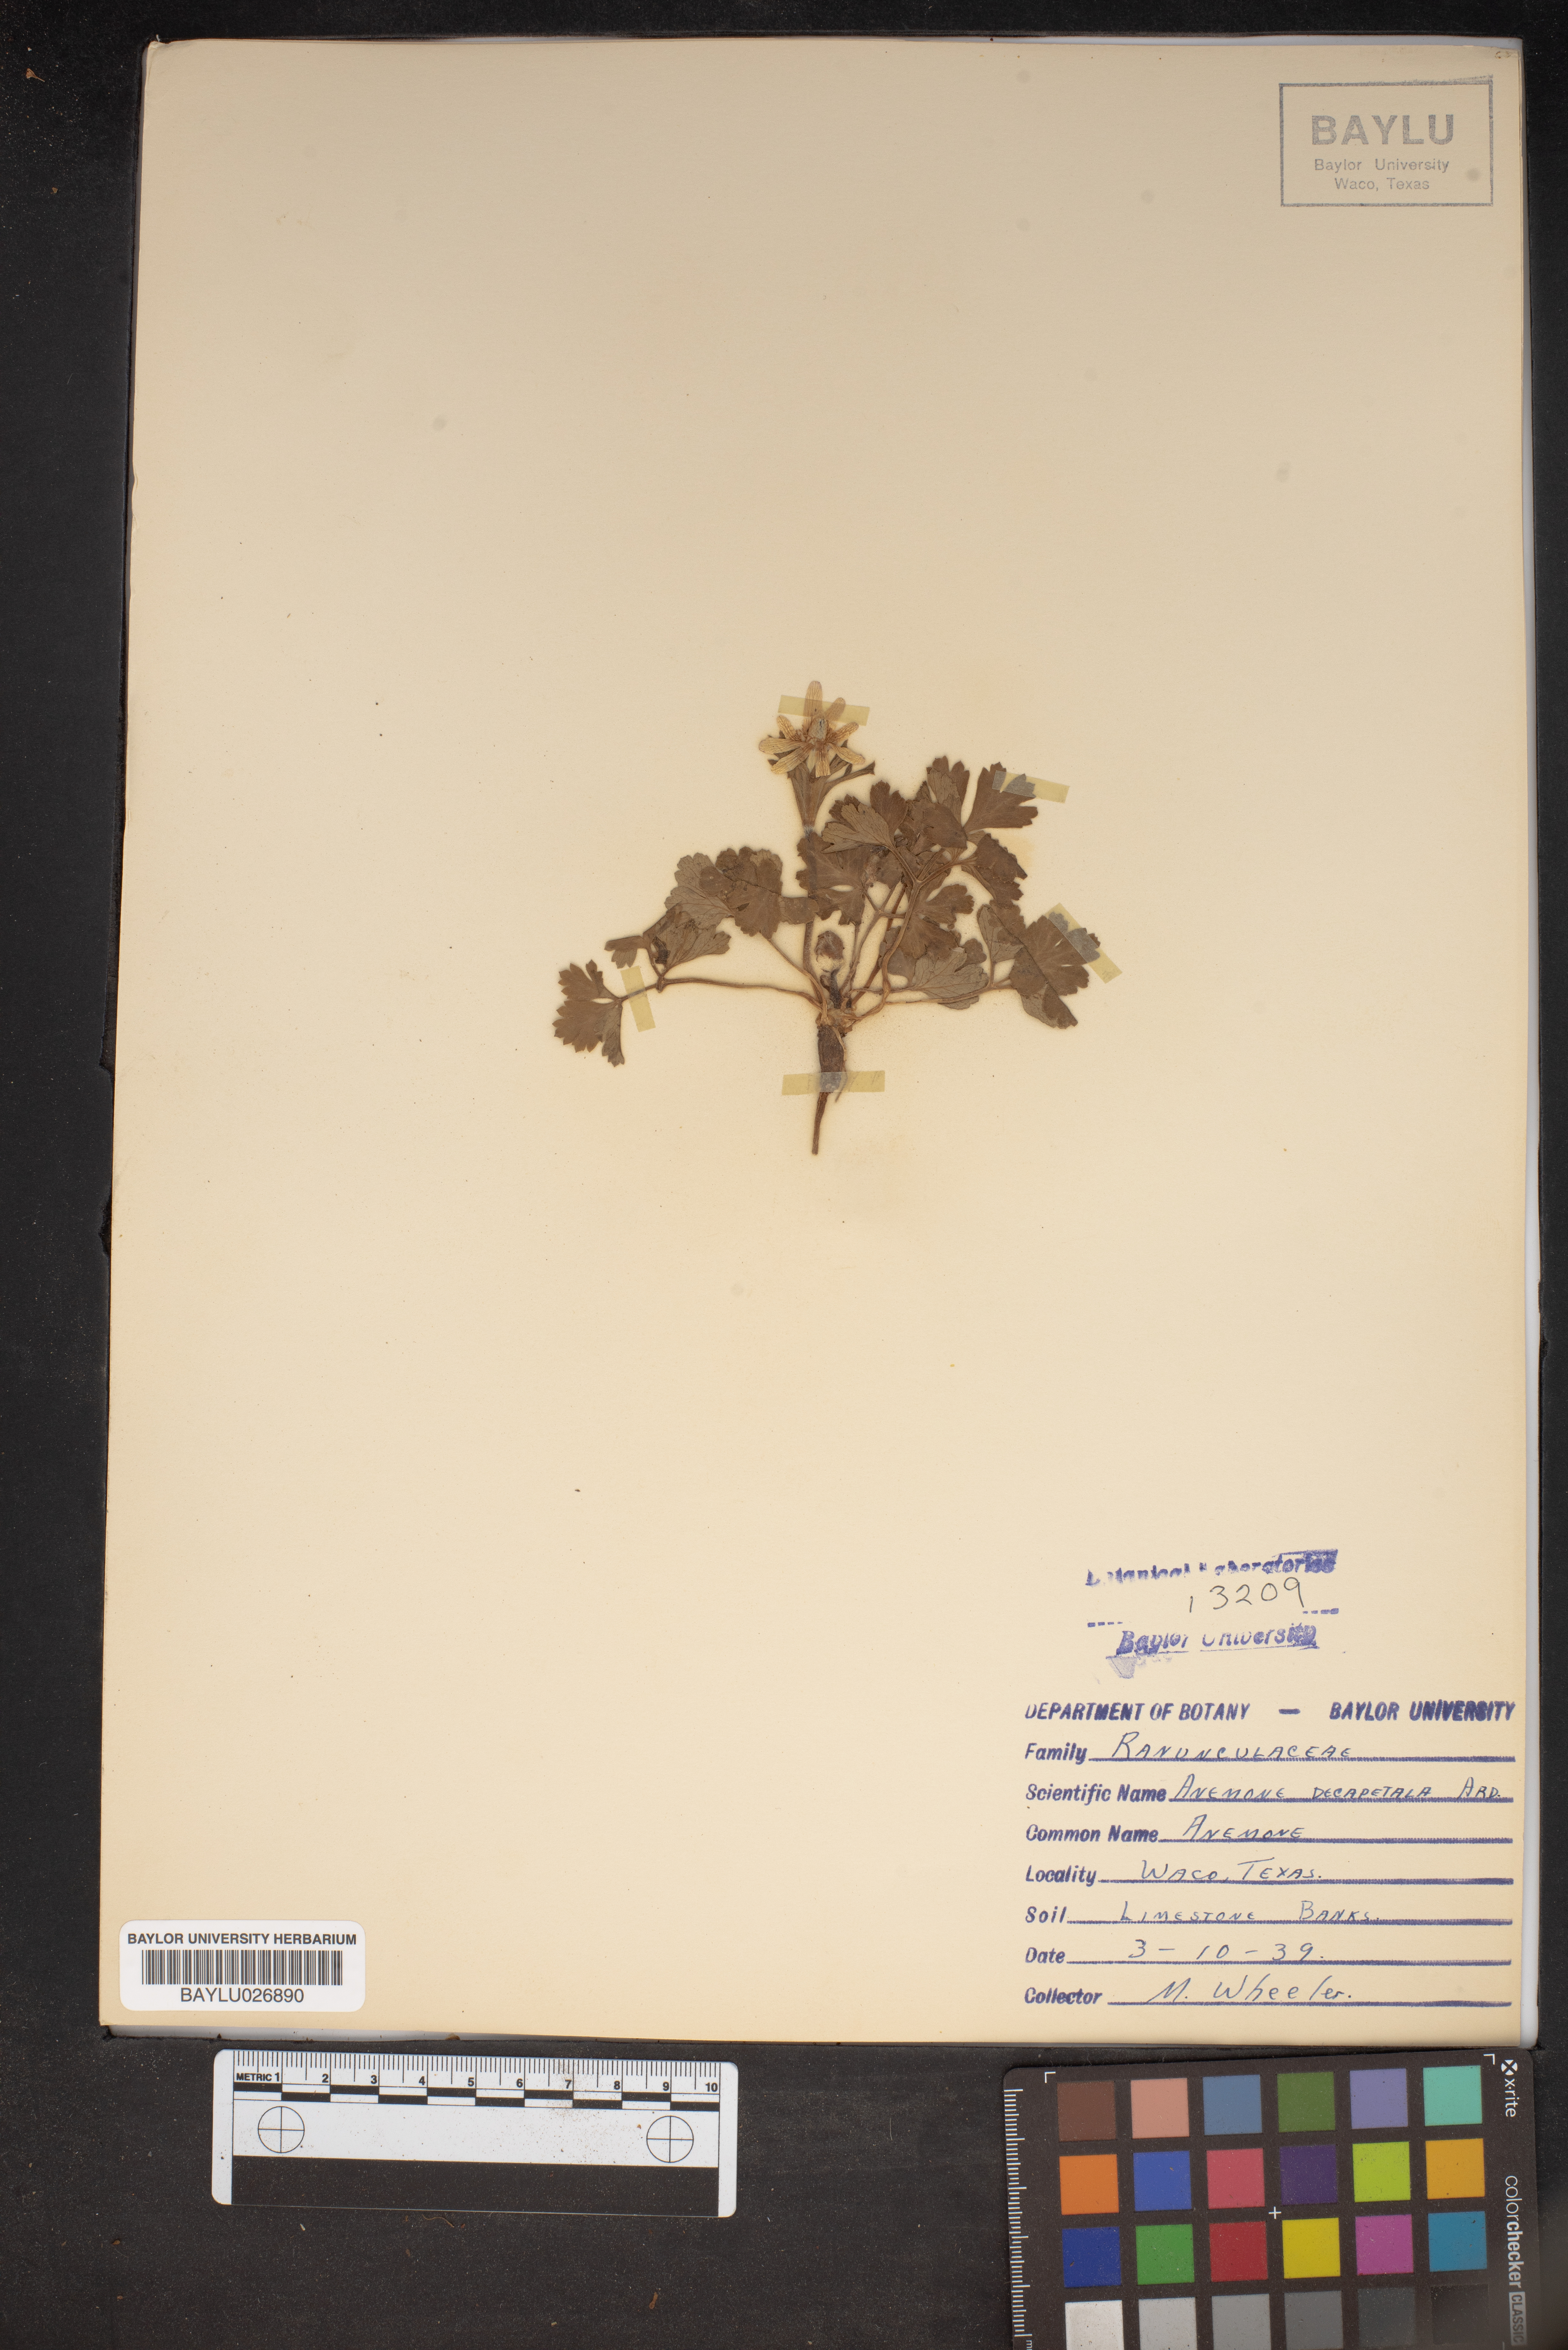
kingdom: Plantae
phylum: Tracheophyta
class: Magnoliopsida
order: Ranunculales
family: Ranunculaceae
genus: Anemone
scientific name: Anemone decapetala
